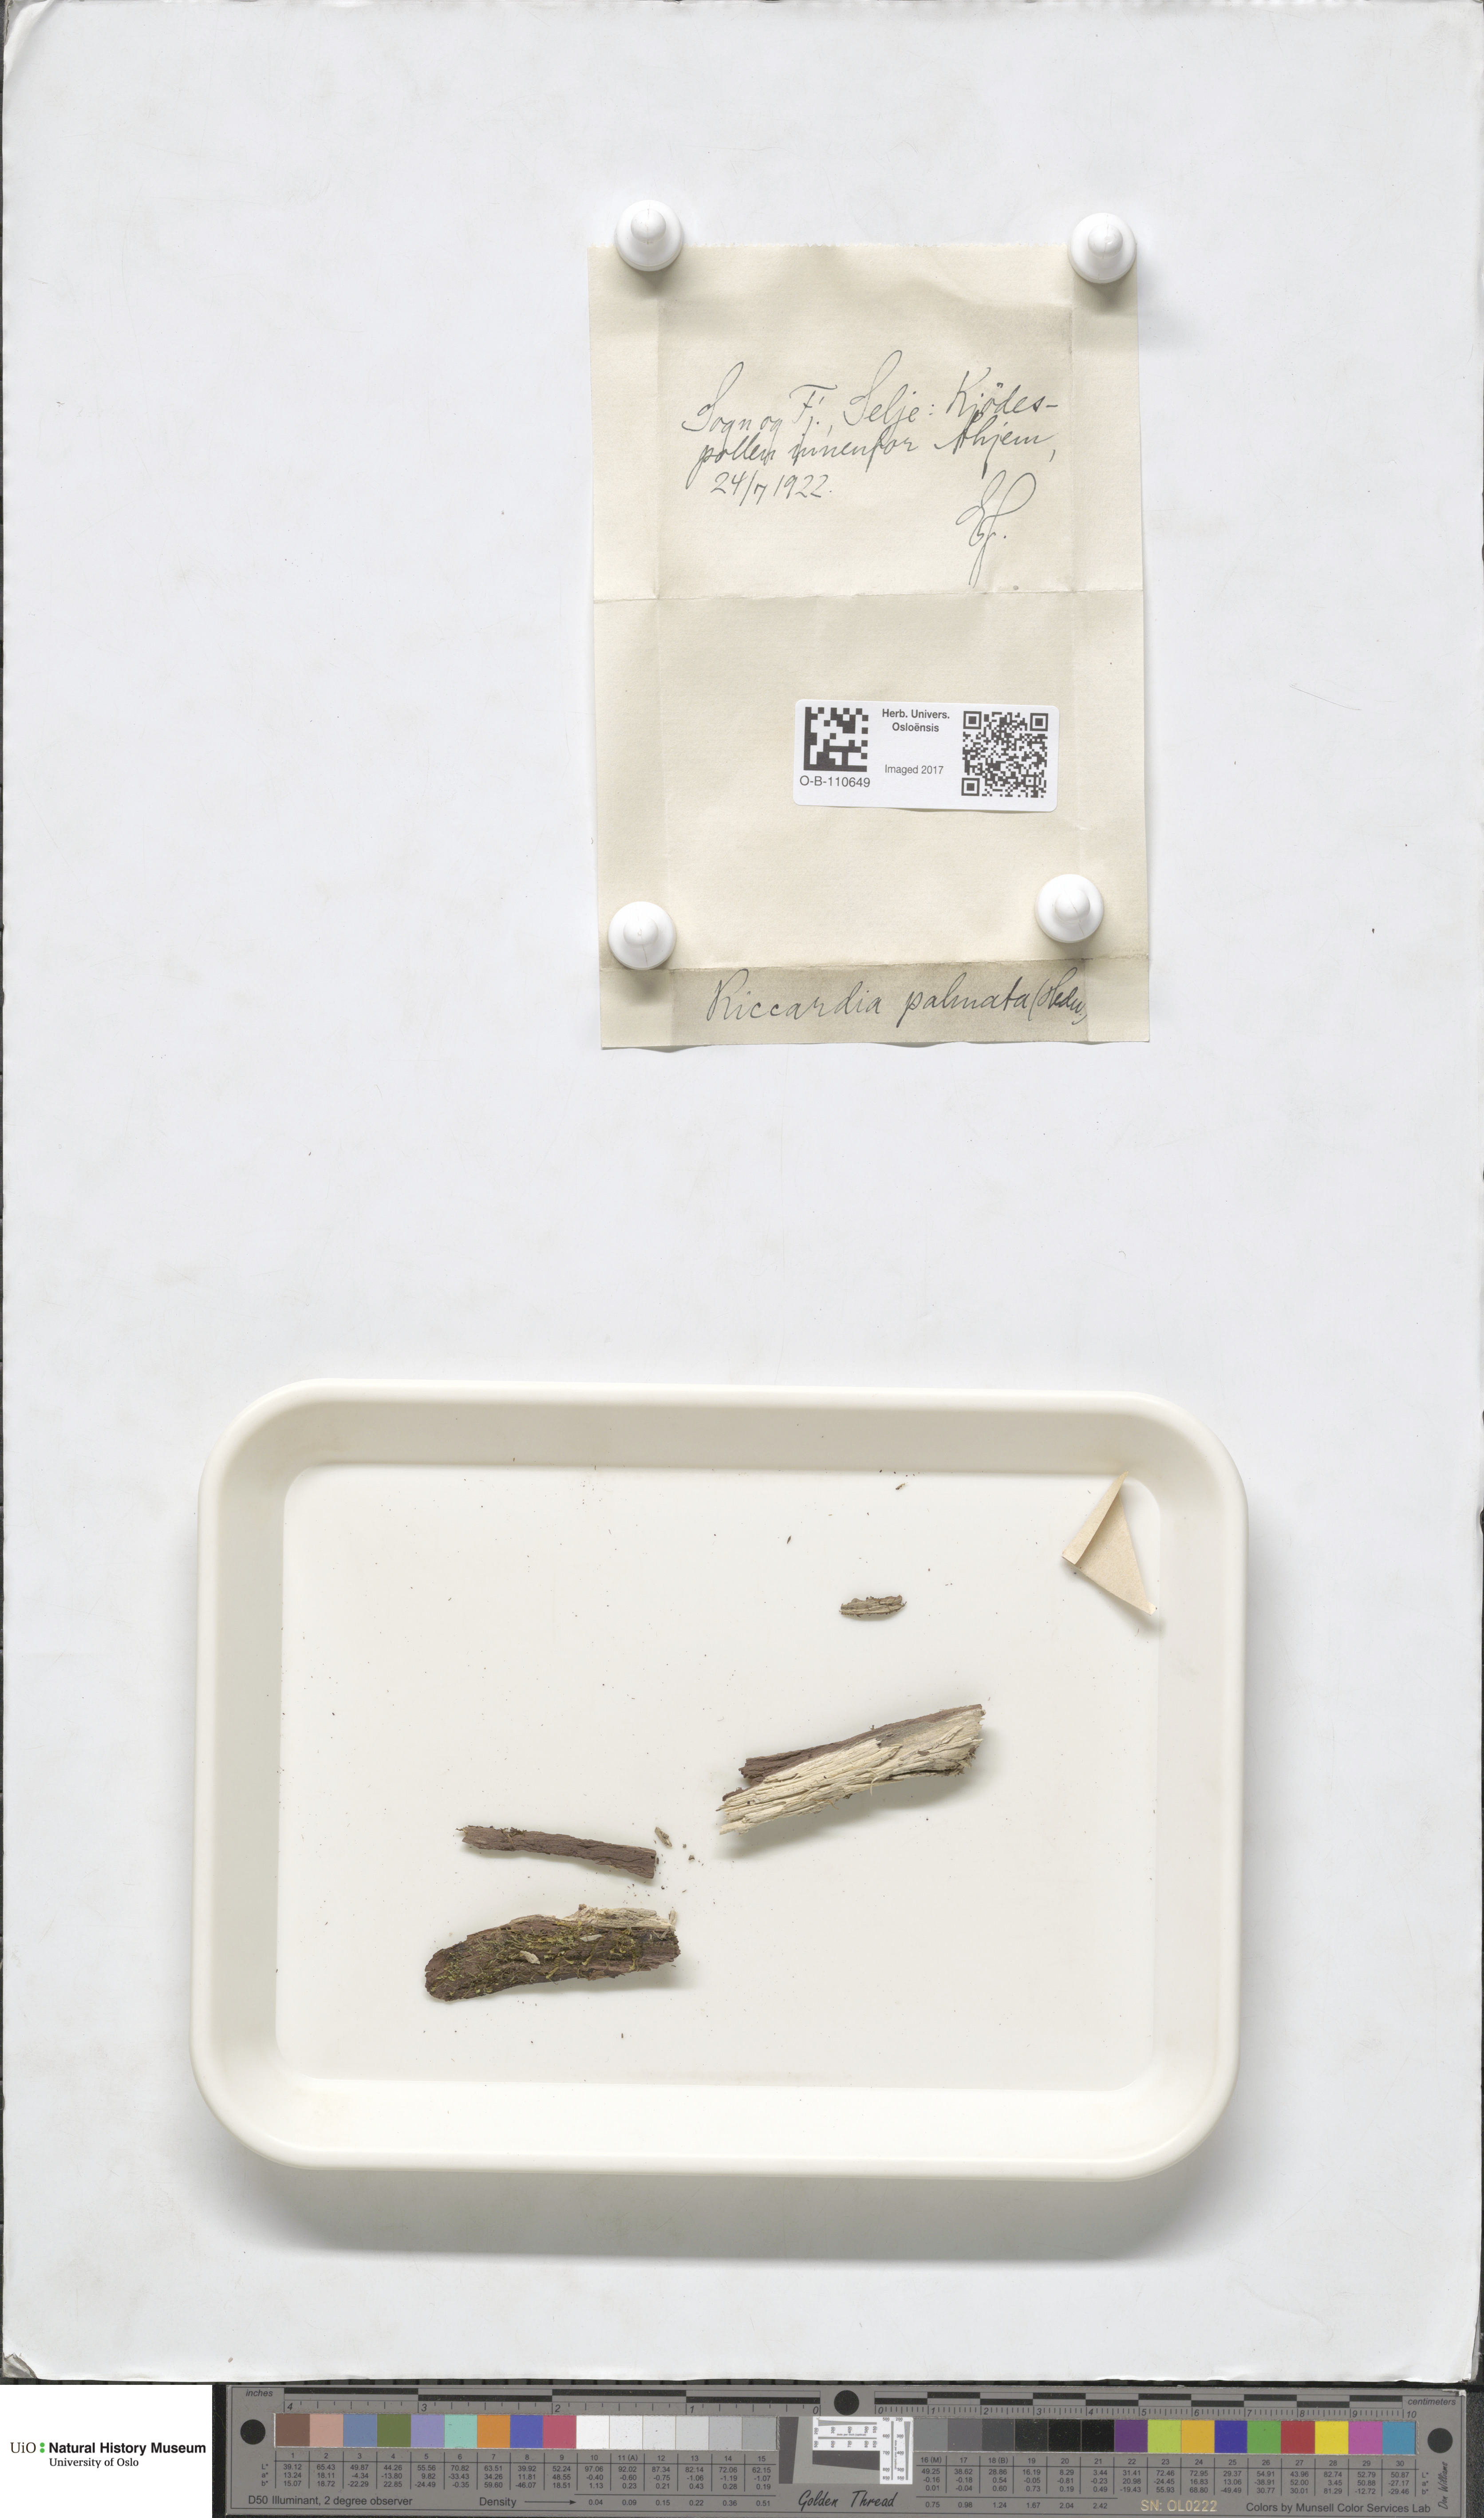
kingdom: Plantae
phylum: Marchantiophyta
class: Jungermanniopsida
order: Metzgeriales
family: Aneuraceae
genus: Riccardia
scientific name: Riccardia palmata
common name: Palmate germanderwort
